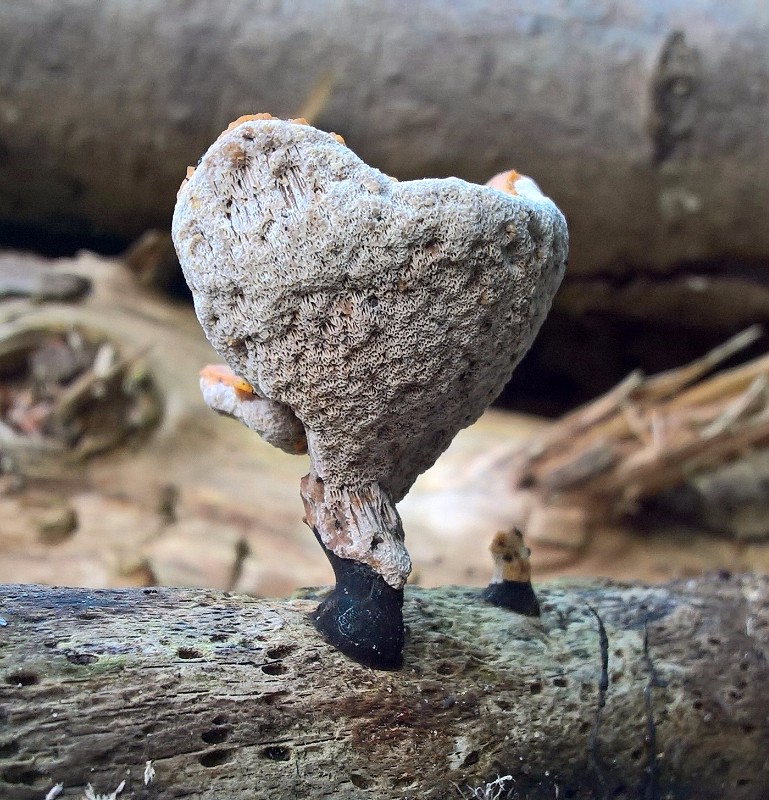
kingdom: Fungi
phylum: Basidiomycota
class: Agaricomycetes
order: Polyporales
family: Polyporaceae
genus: Cerioporus
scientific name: Cerioporus varius
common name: foranderlig stilkporesvamp
